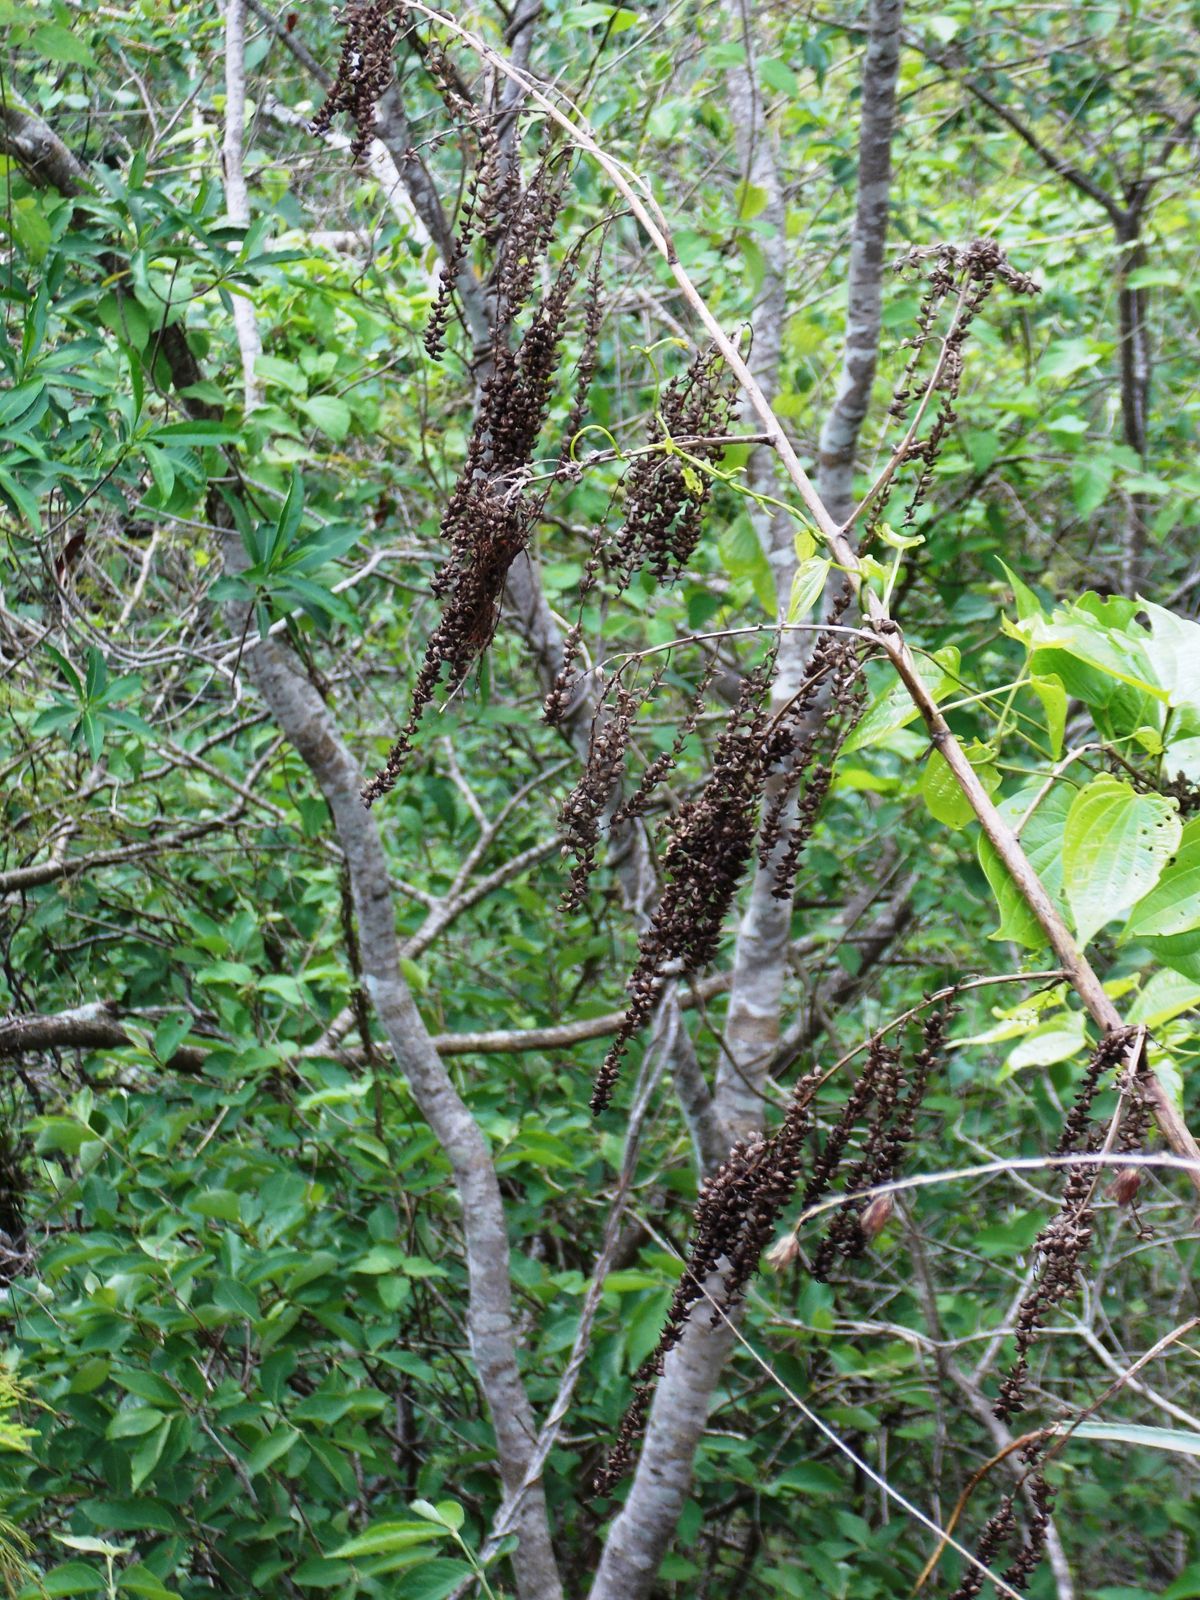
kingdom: Plantae
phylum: Tracheophyta
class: Liliopsida
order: Poales
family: Bromeliaceae
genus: Hechtia
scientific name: Hechtia guatemalensis
